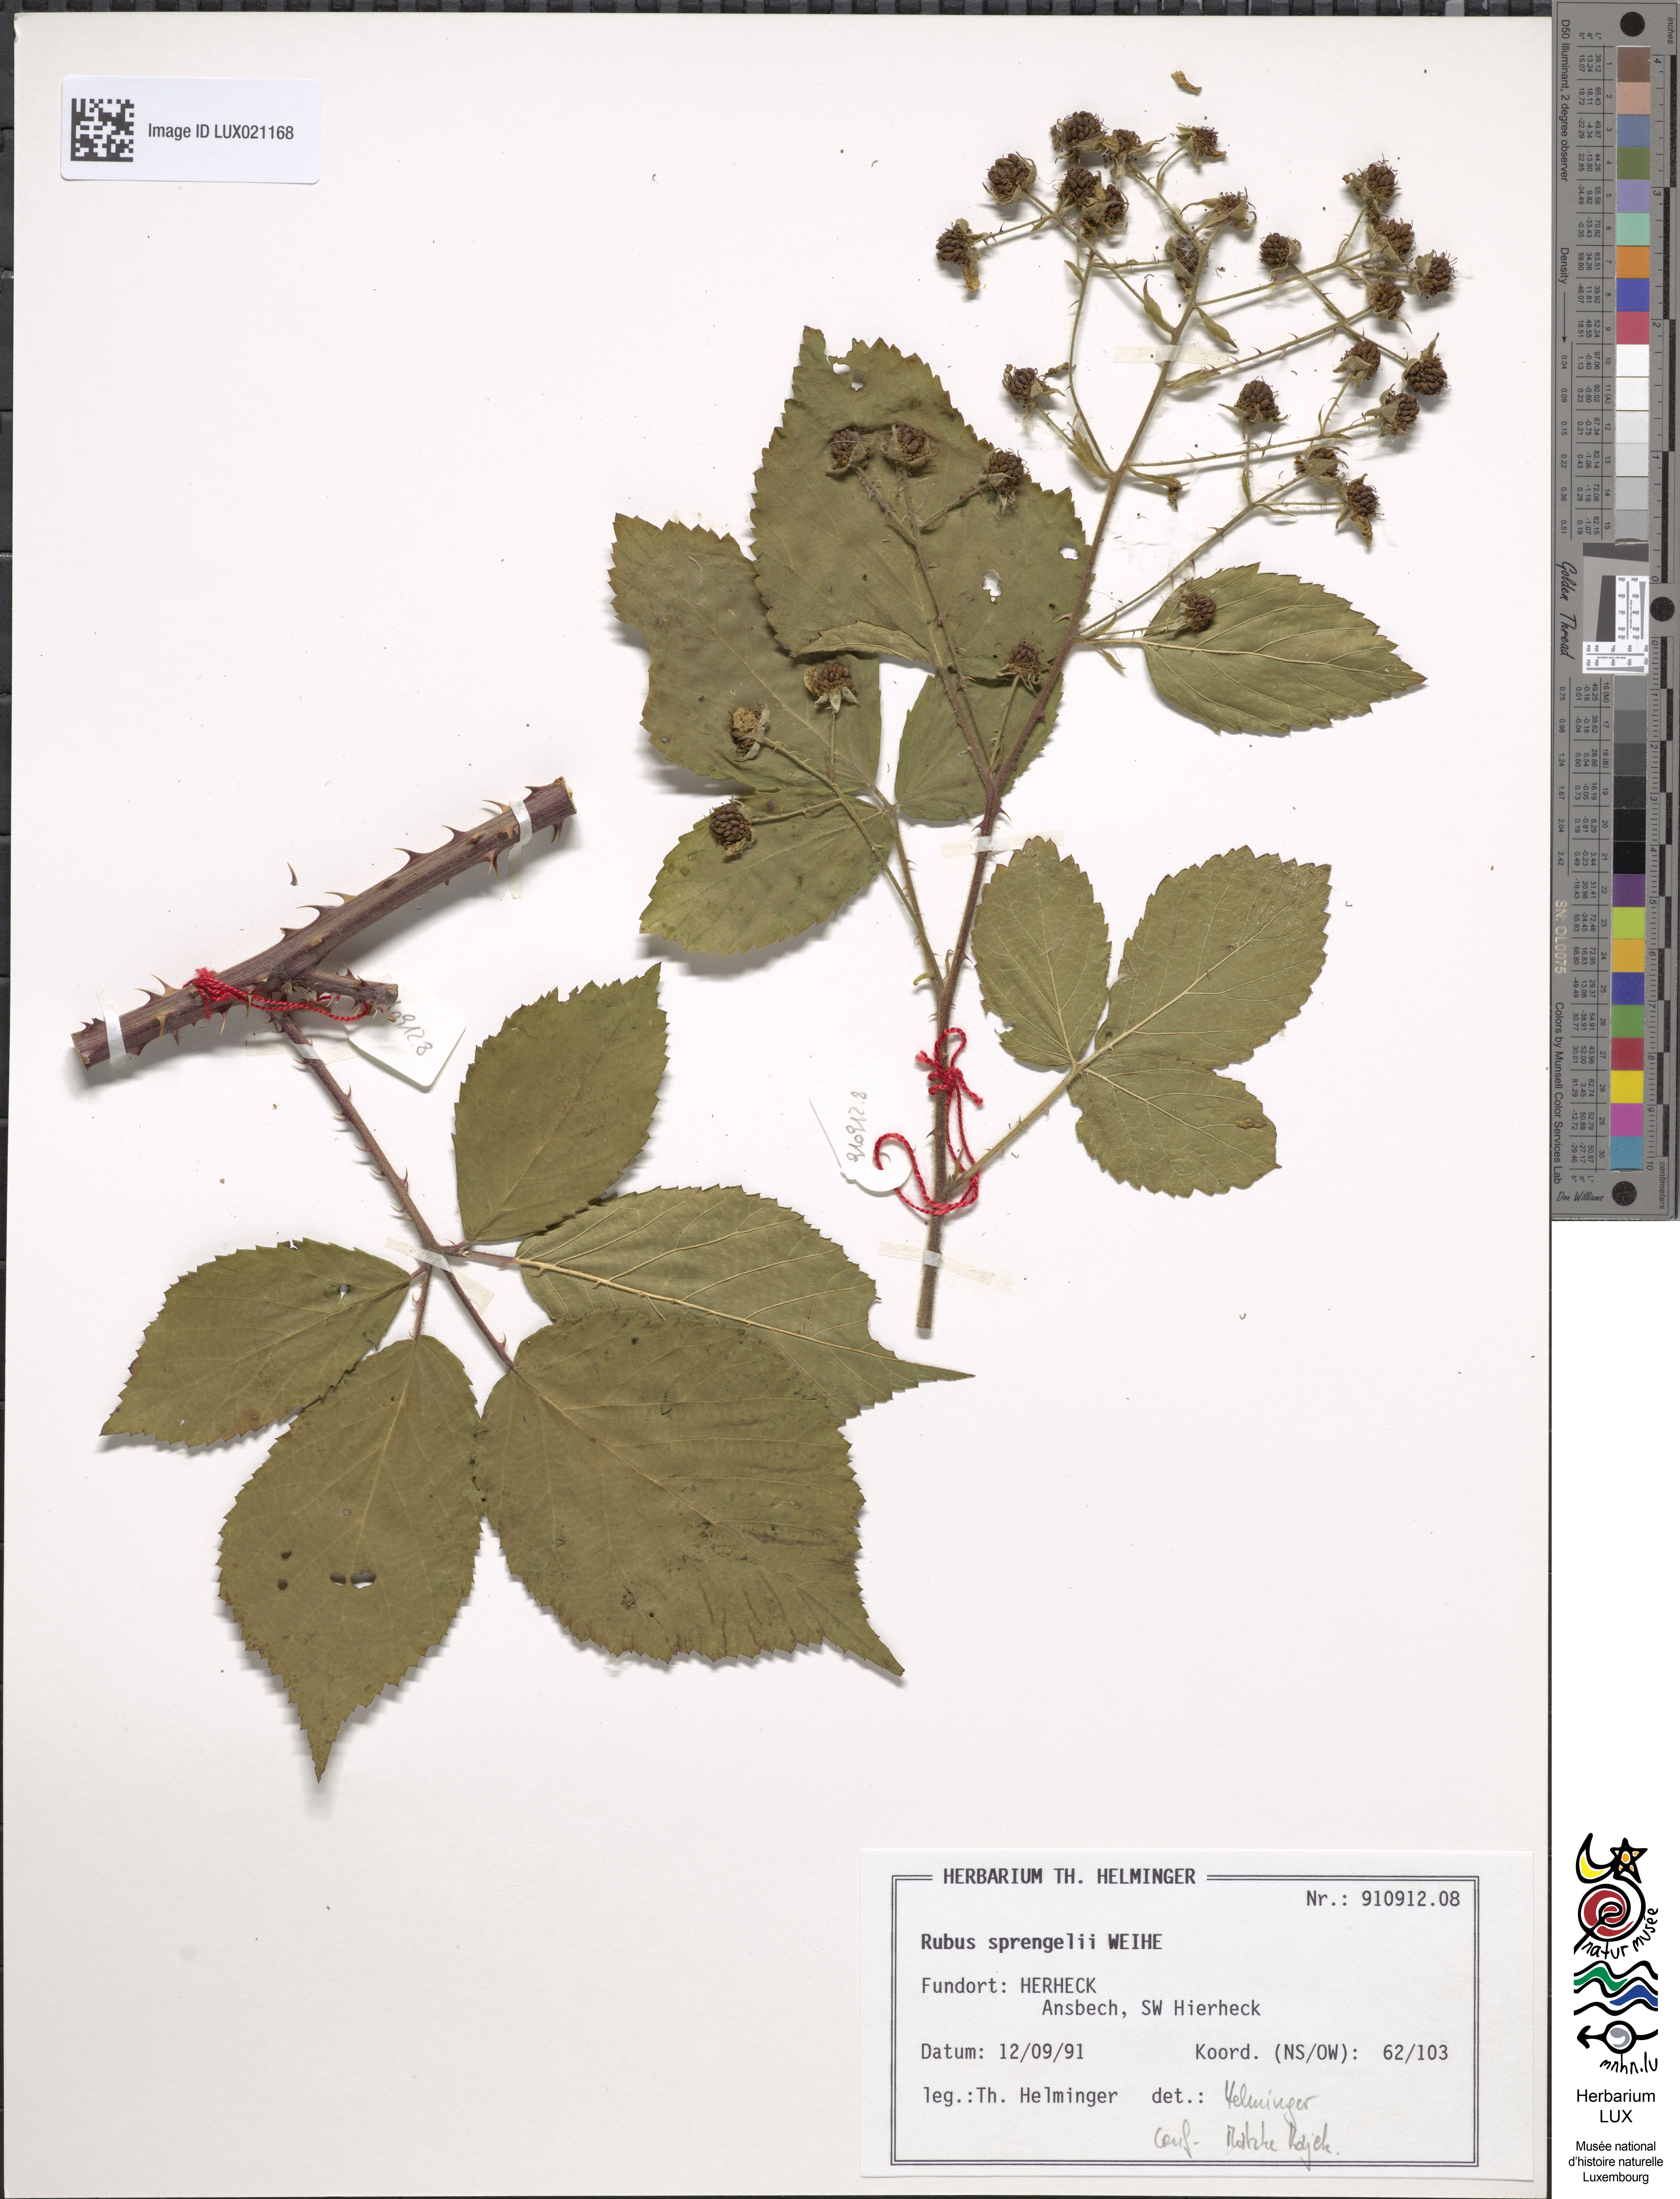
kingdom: Plantae
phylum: Tracheophyta
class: Magnoliopsida
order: Rosales
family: Rosaceae
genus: Rubus
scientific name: Rubus sprengelii
